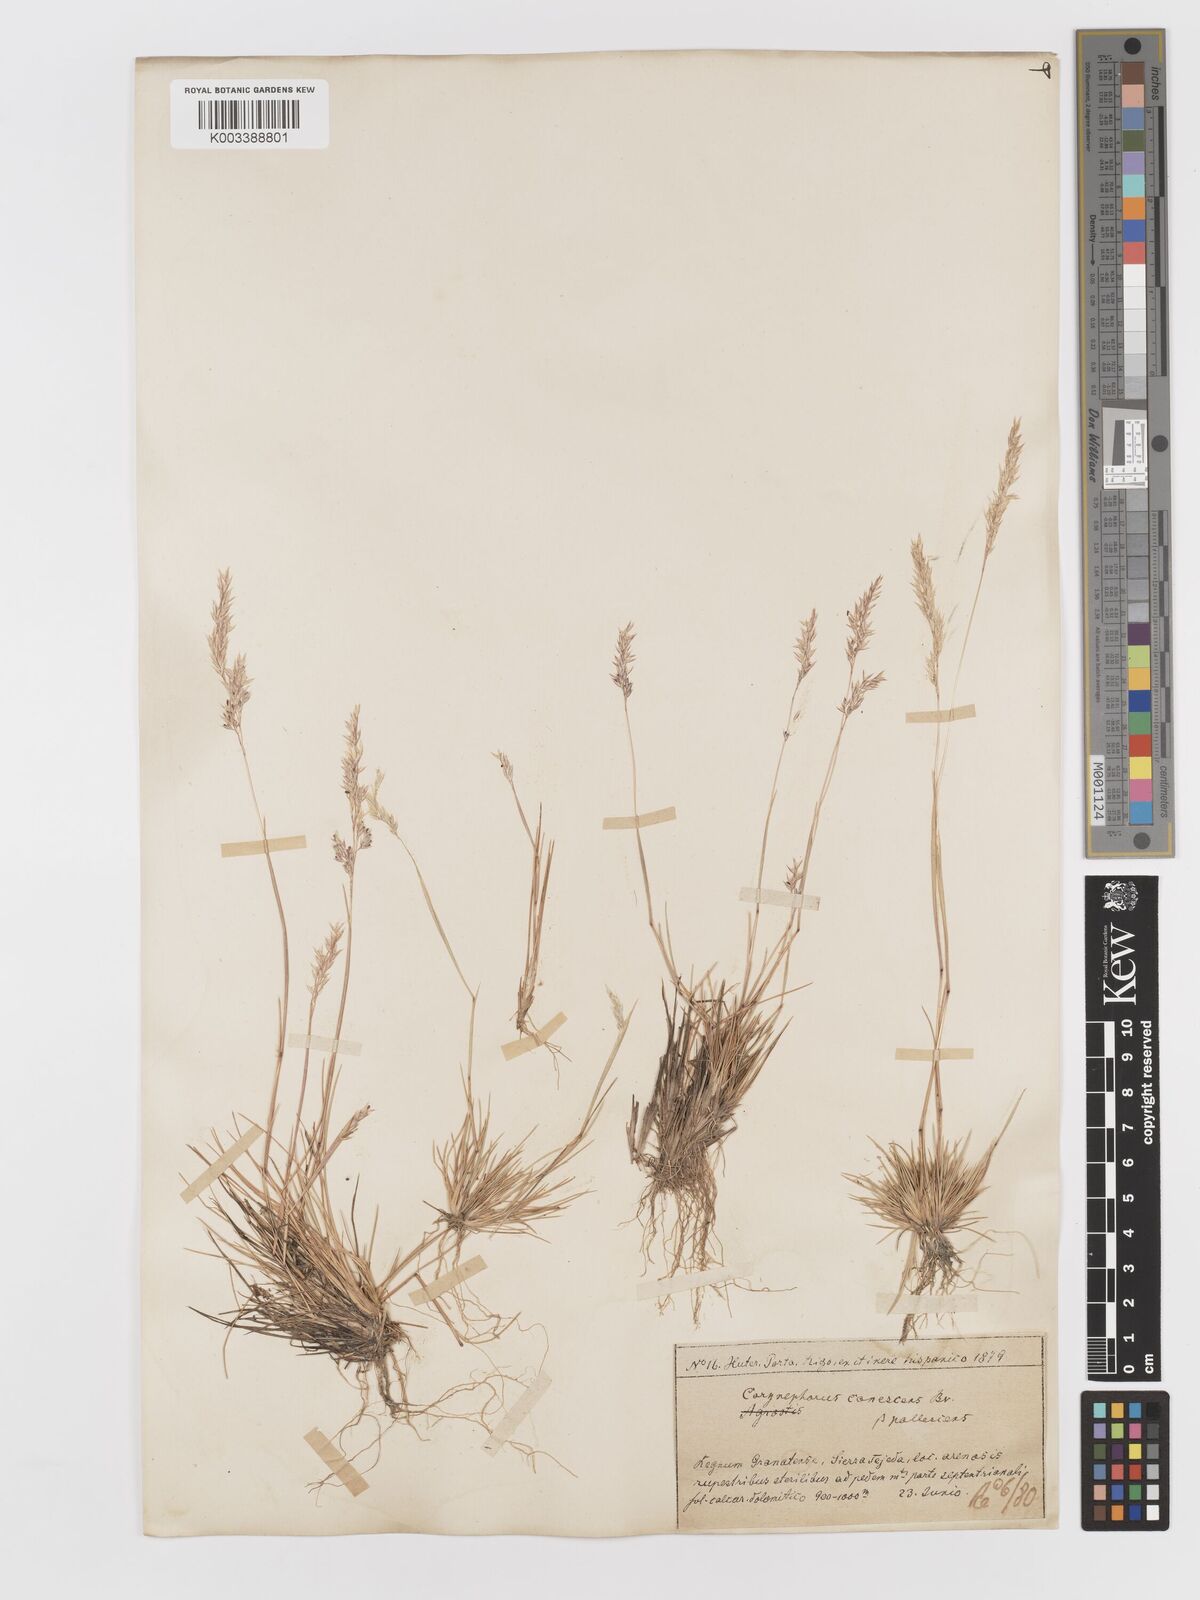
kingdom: Plantae
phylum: Tracheophyta
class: Liliopsida
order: Poales
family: Poaceae
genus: Corynephorus
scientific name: Corynephorus canescens
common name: Grey hair-grass
